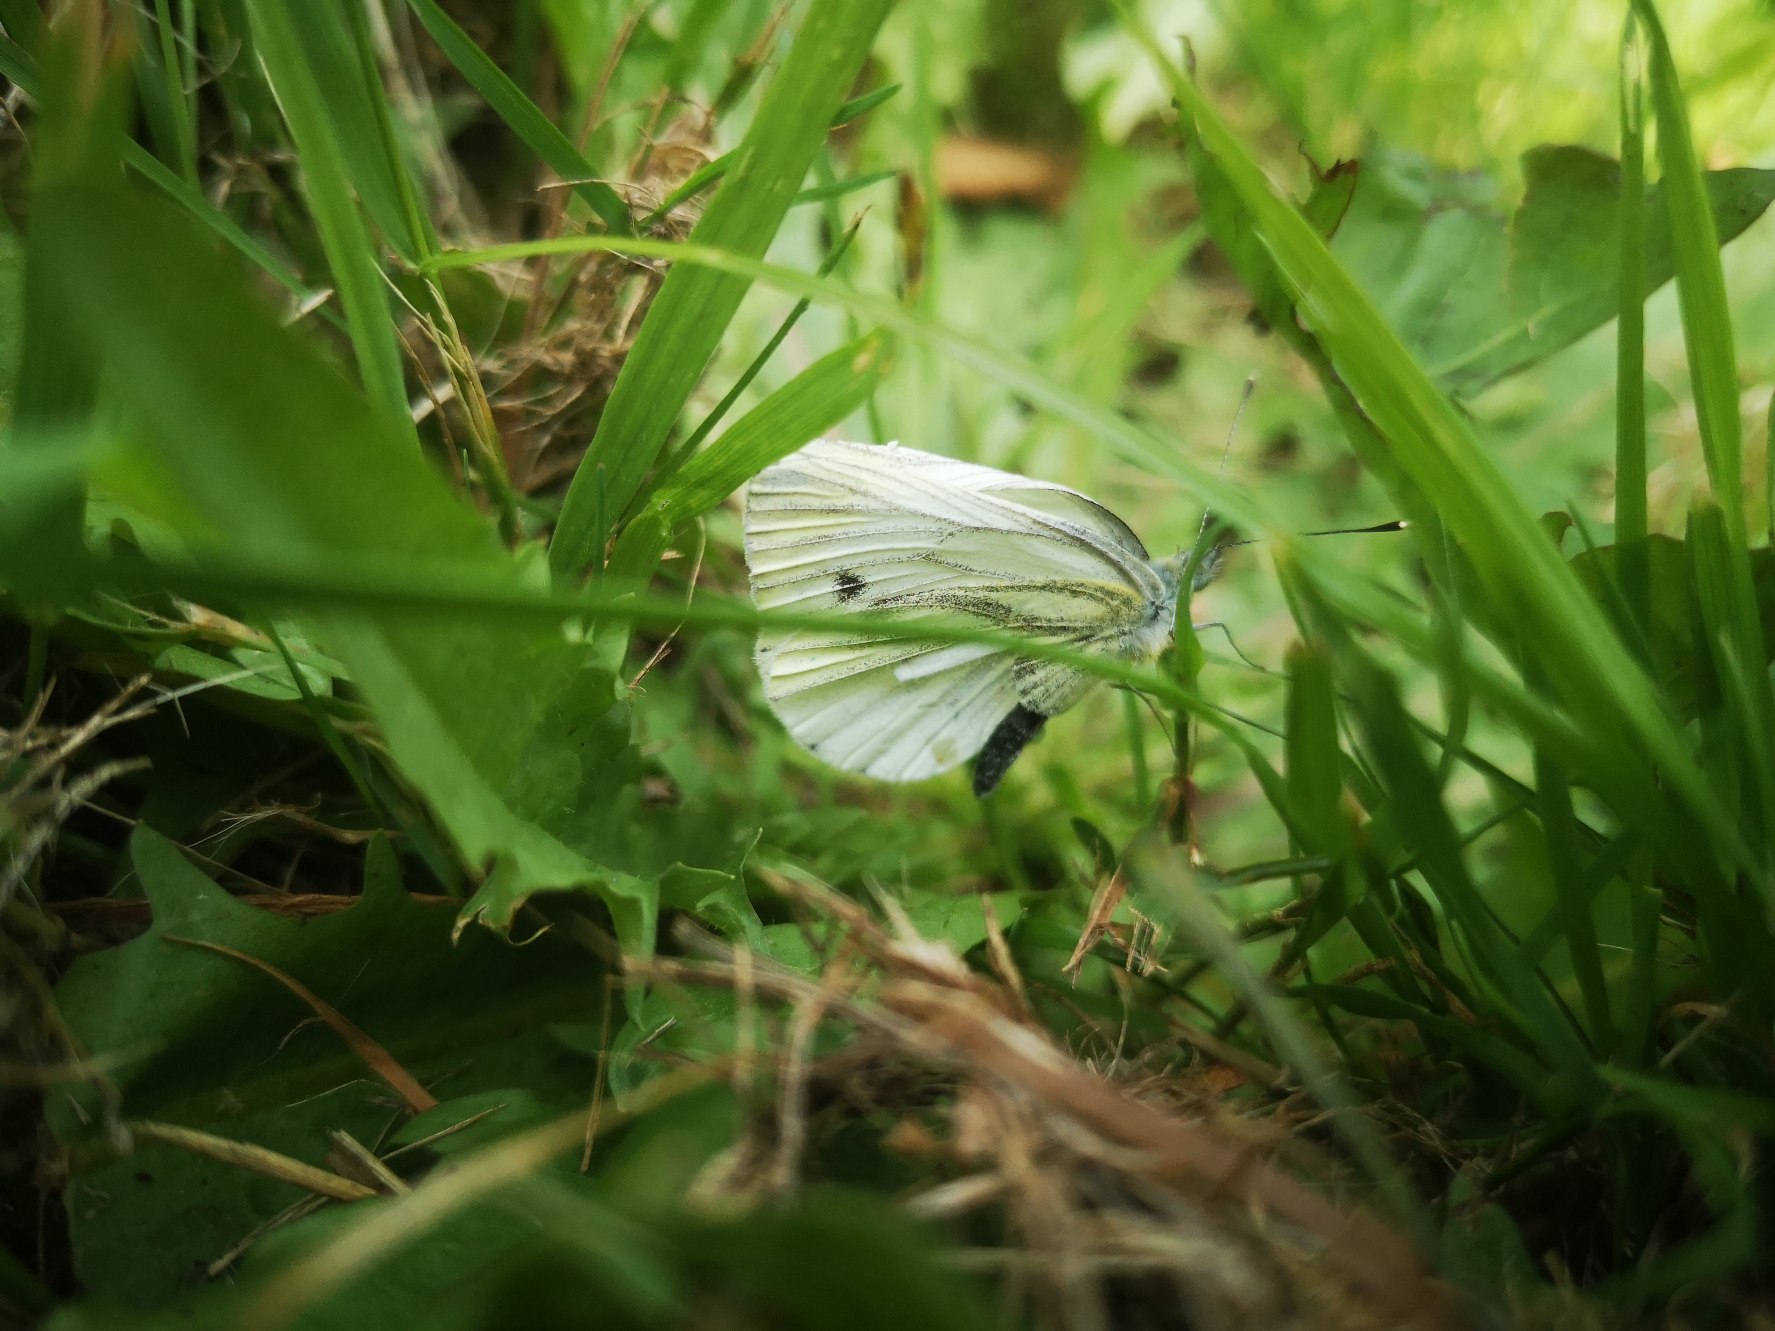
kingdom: Animalia
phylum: Arthropoda
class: Insecta
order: Lepidoptera
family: Pieridae
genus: Pieris
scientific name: Pieris napi
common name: Grønåret kålsommerfugl
